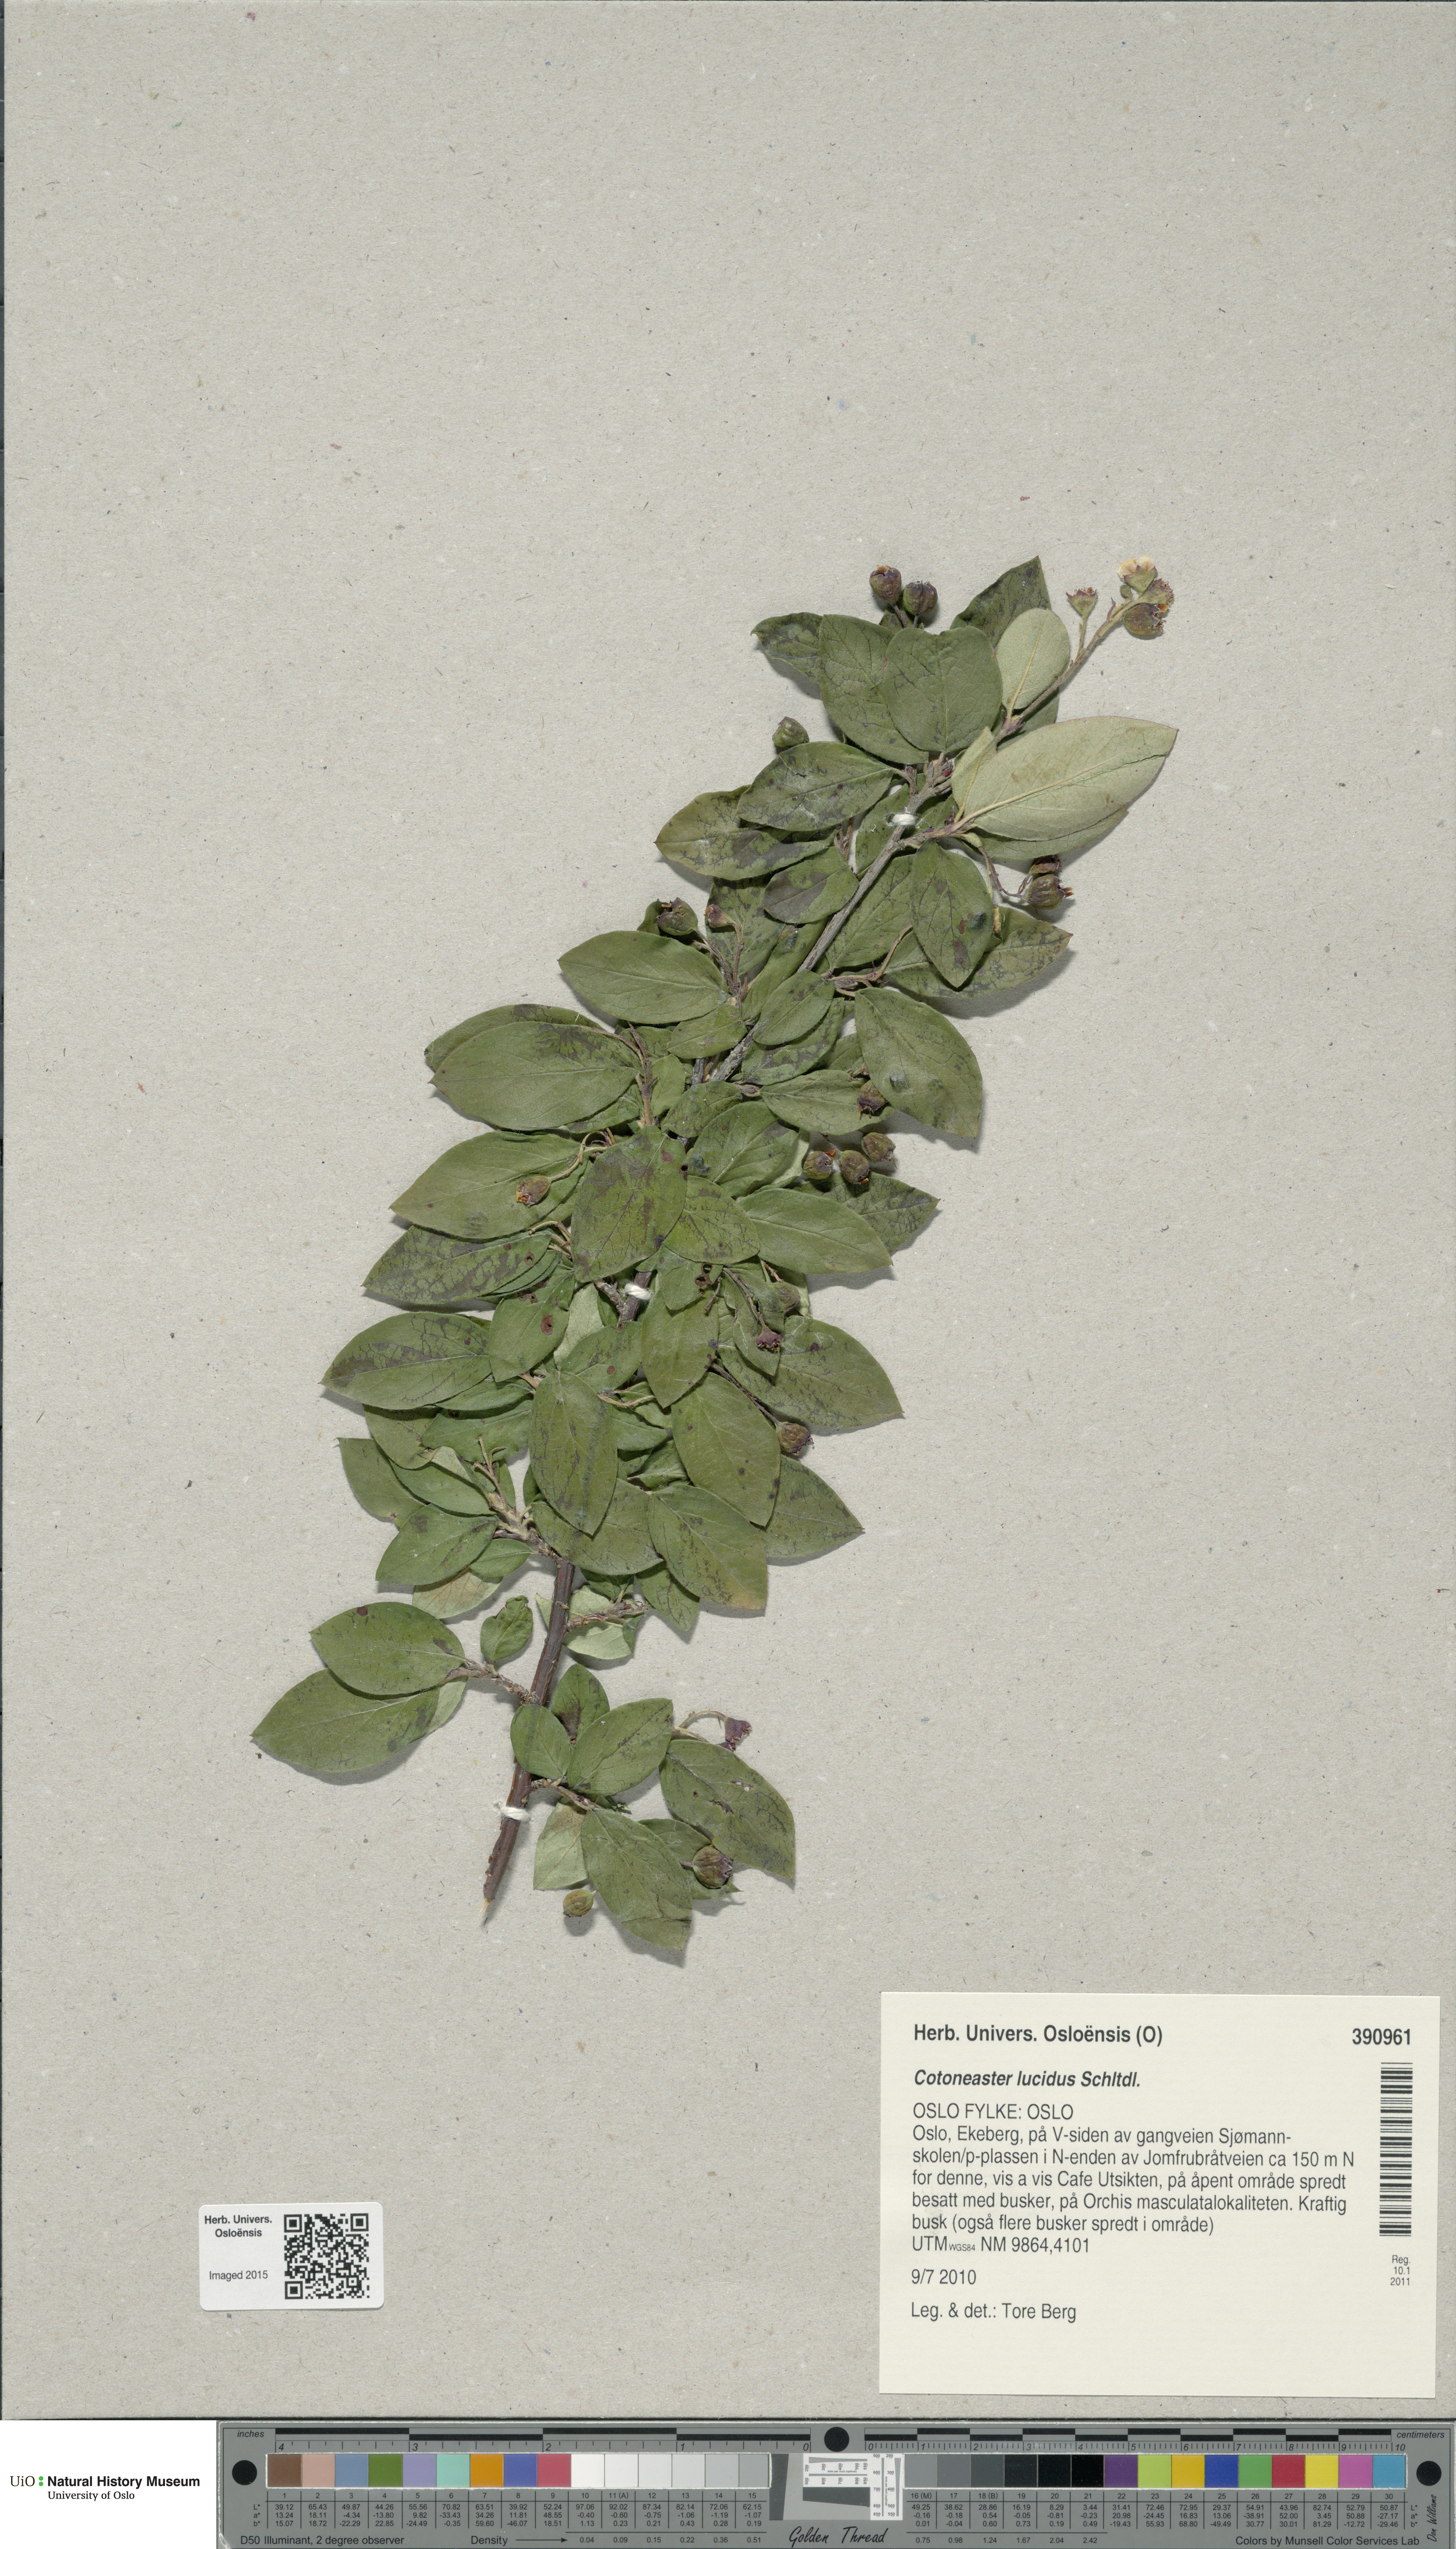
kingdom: Plantae
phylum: Tracheophyta
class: Magnoliopsida
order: Rosales
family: Rosaceae
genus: Cotoneaster
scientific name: Cotoneaster acutifolius
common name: Peking cotoneaster
